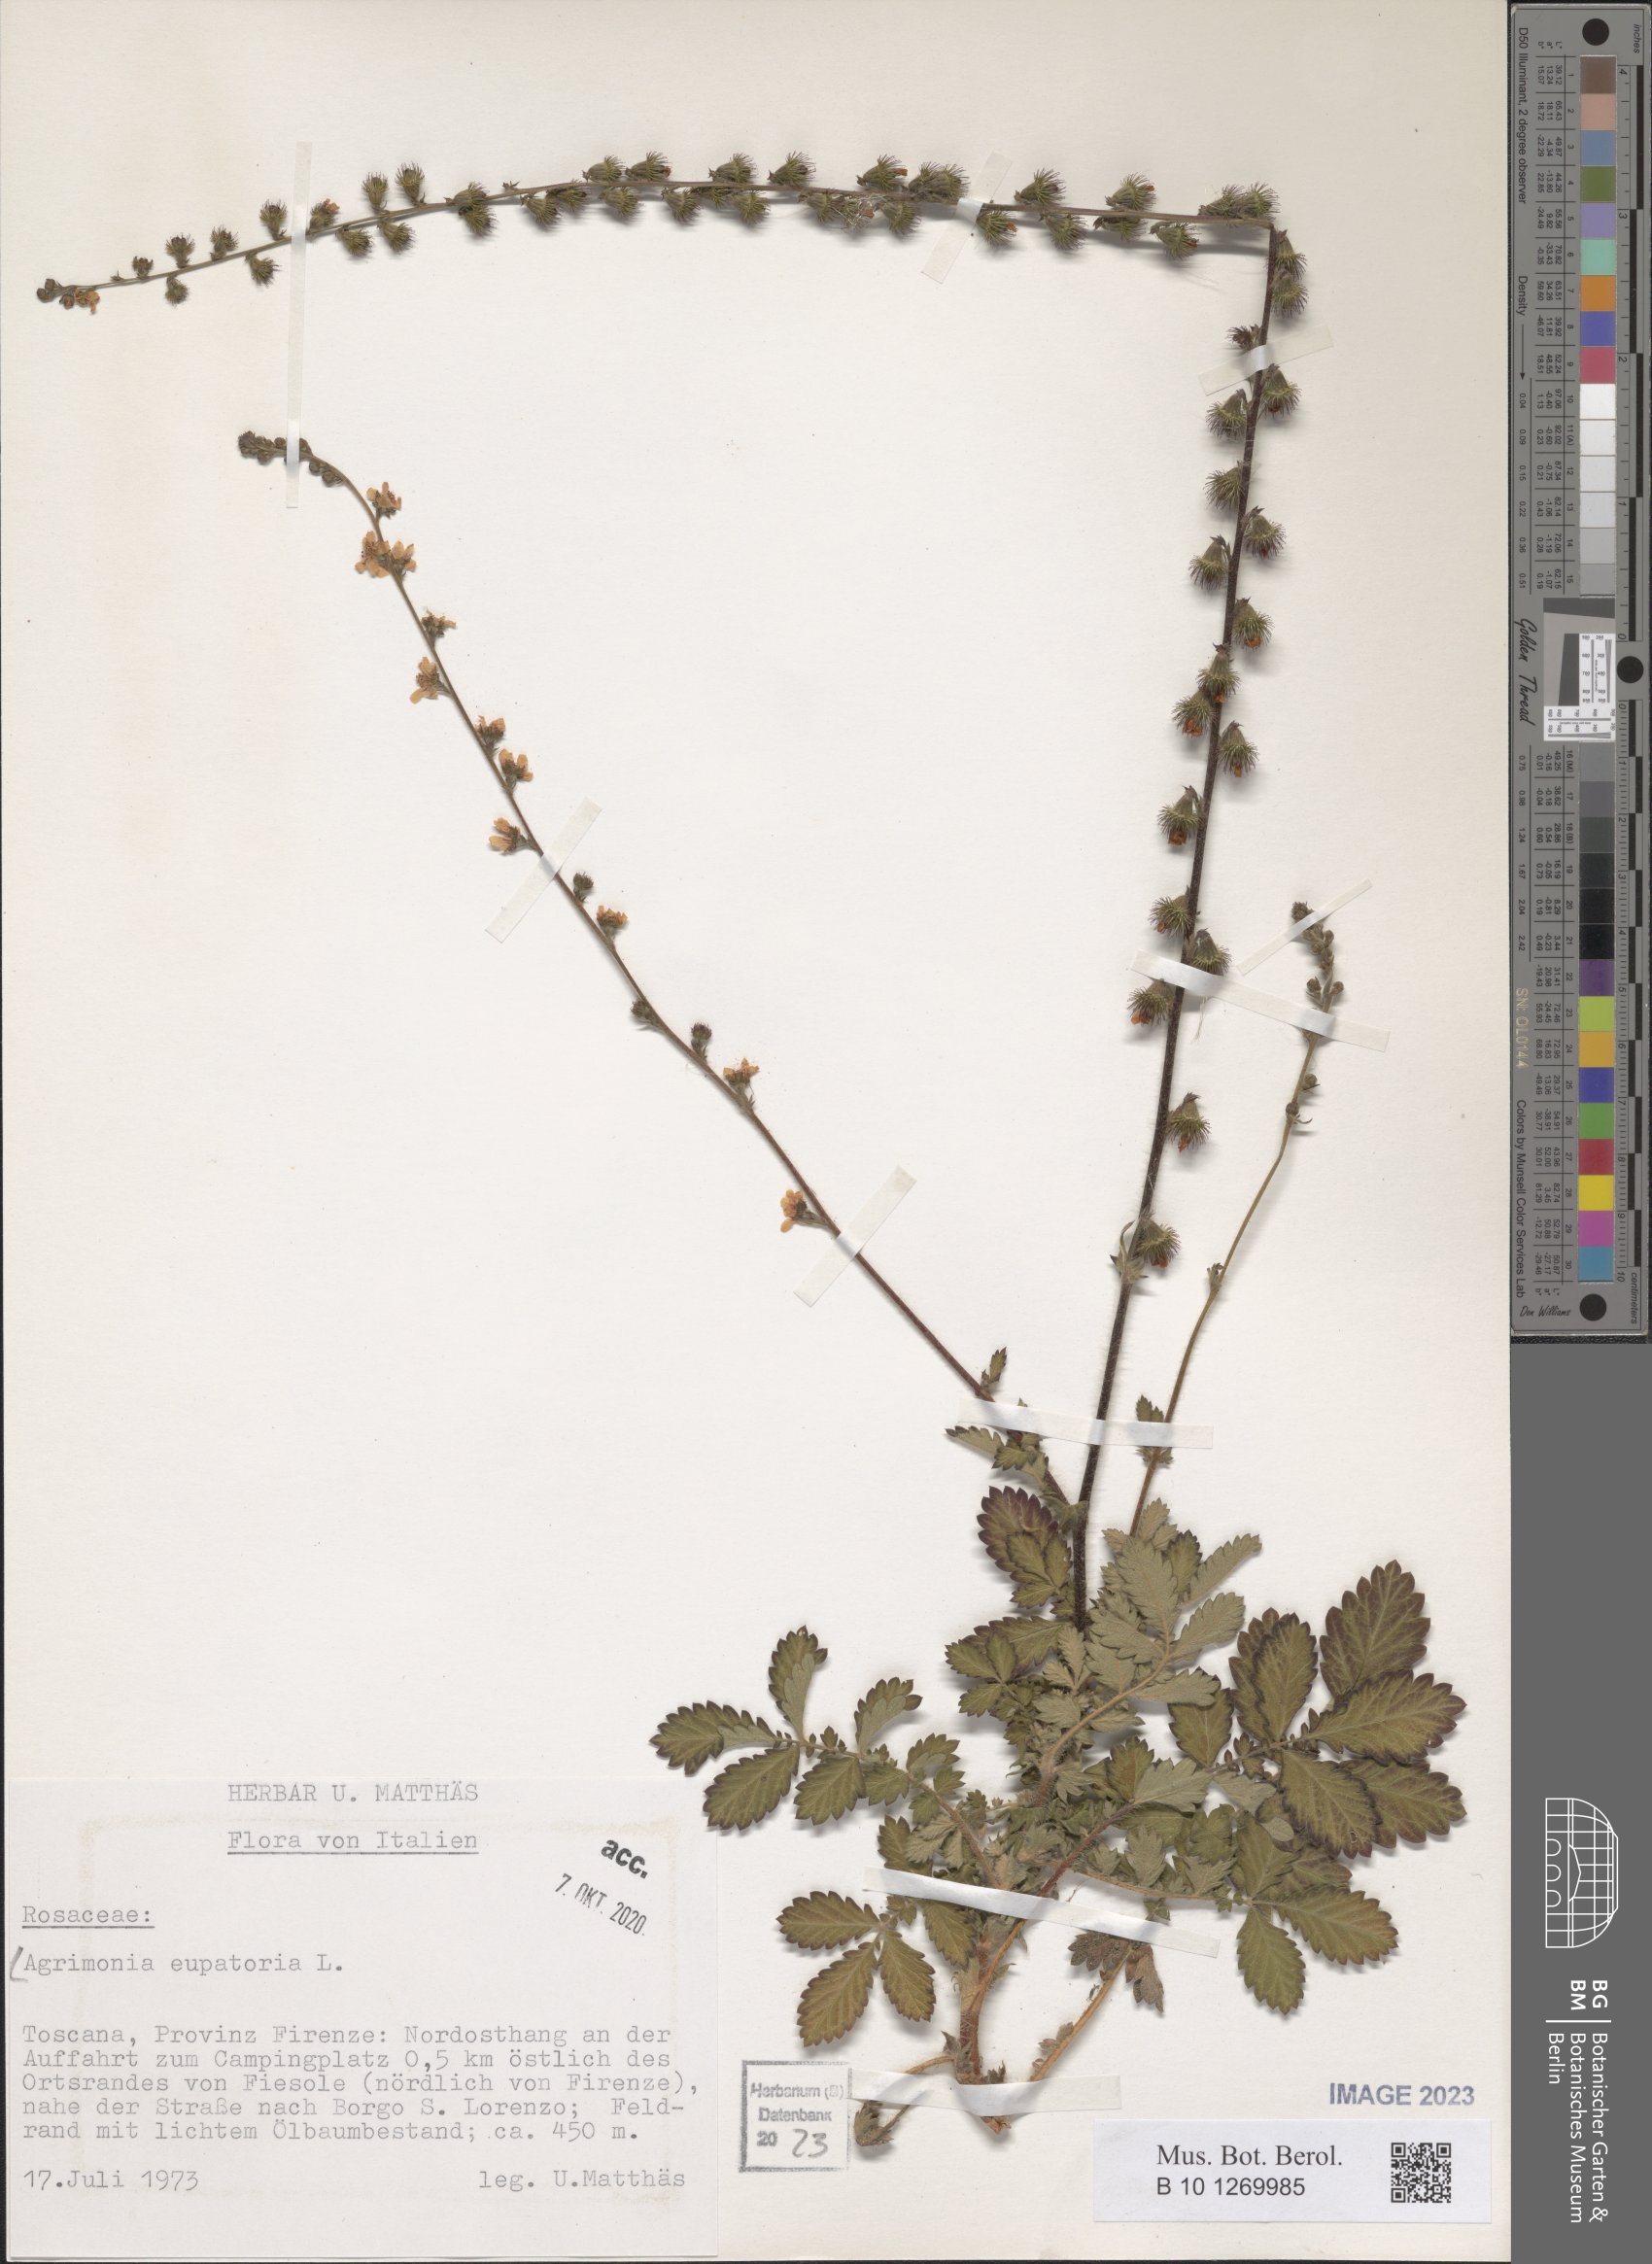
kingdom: Plantae
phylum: Tracheophyta
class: Magnoliopsida
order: Rosales
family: Rosaceae
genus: Agrimonia
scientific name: Agrimonia eupatoria
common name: Agrimony
